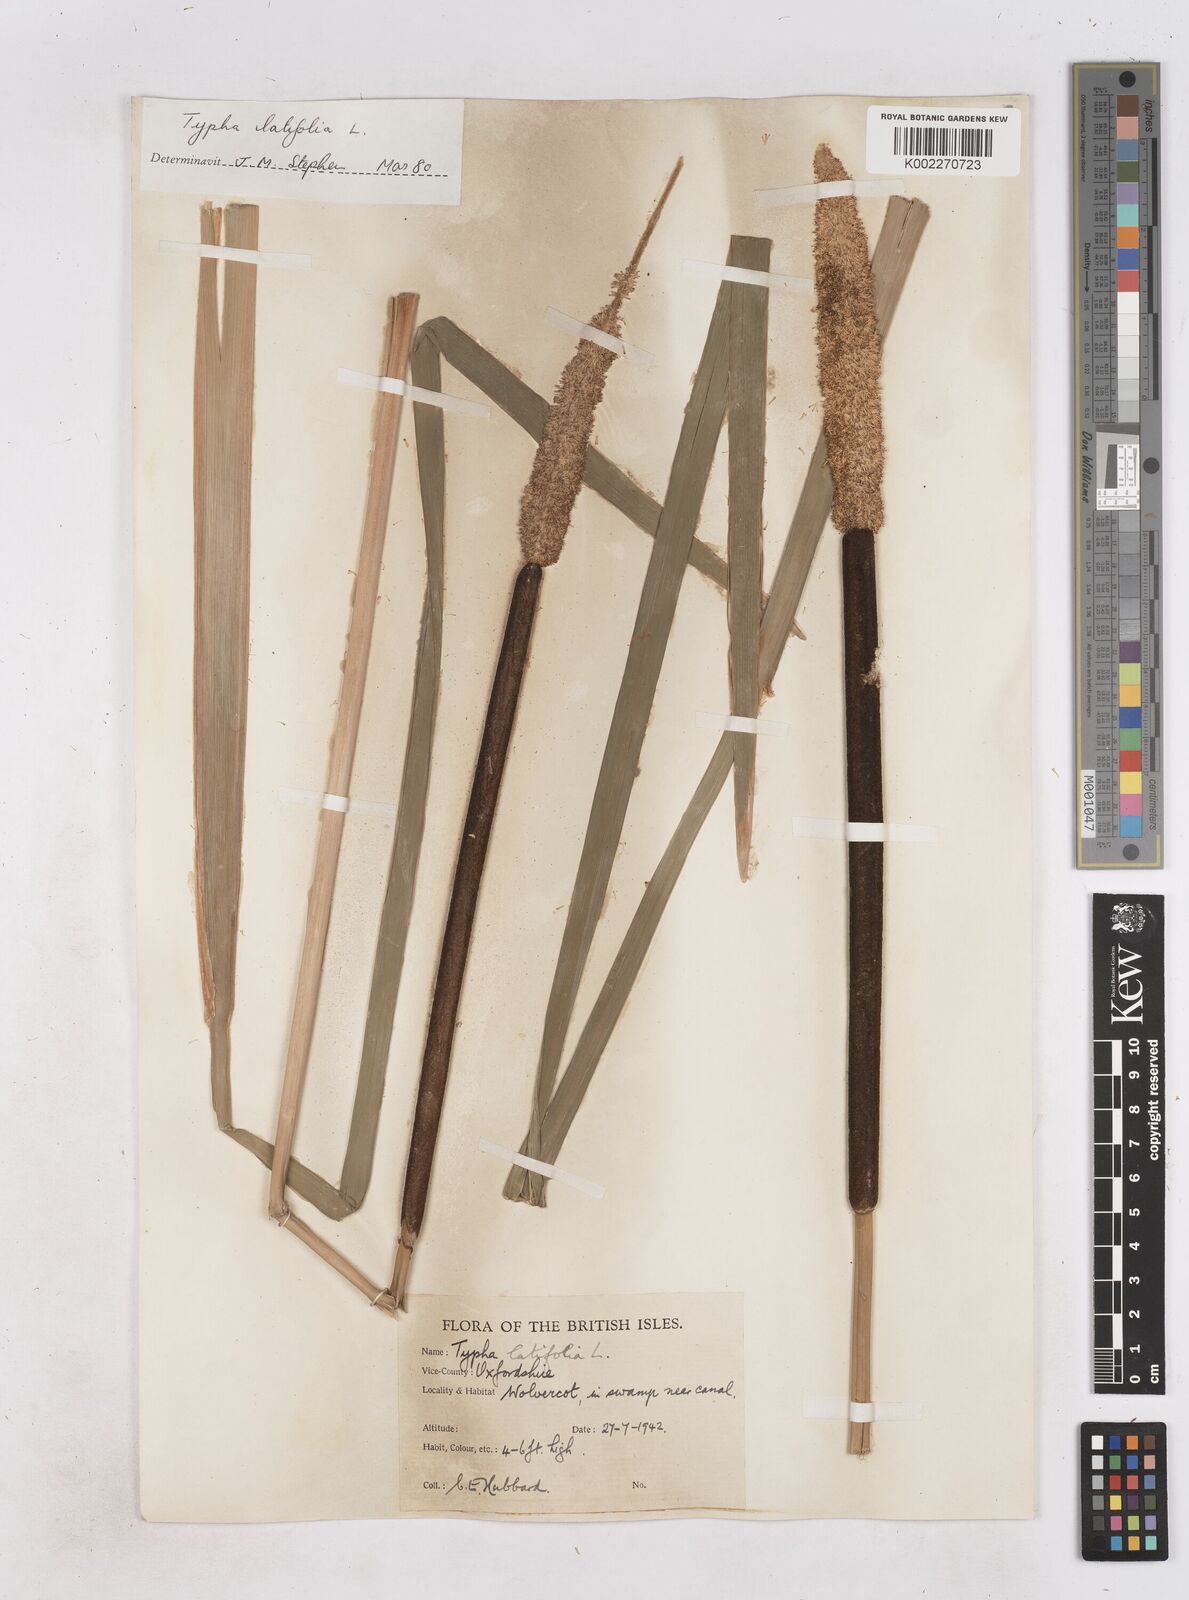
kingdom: Plantae
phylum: Tracheophyta
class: Liliopsida
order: Poales
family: Typhaceae
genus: Typha
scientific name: Typha latifolia
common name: Broadleaf cattail
